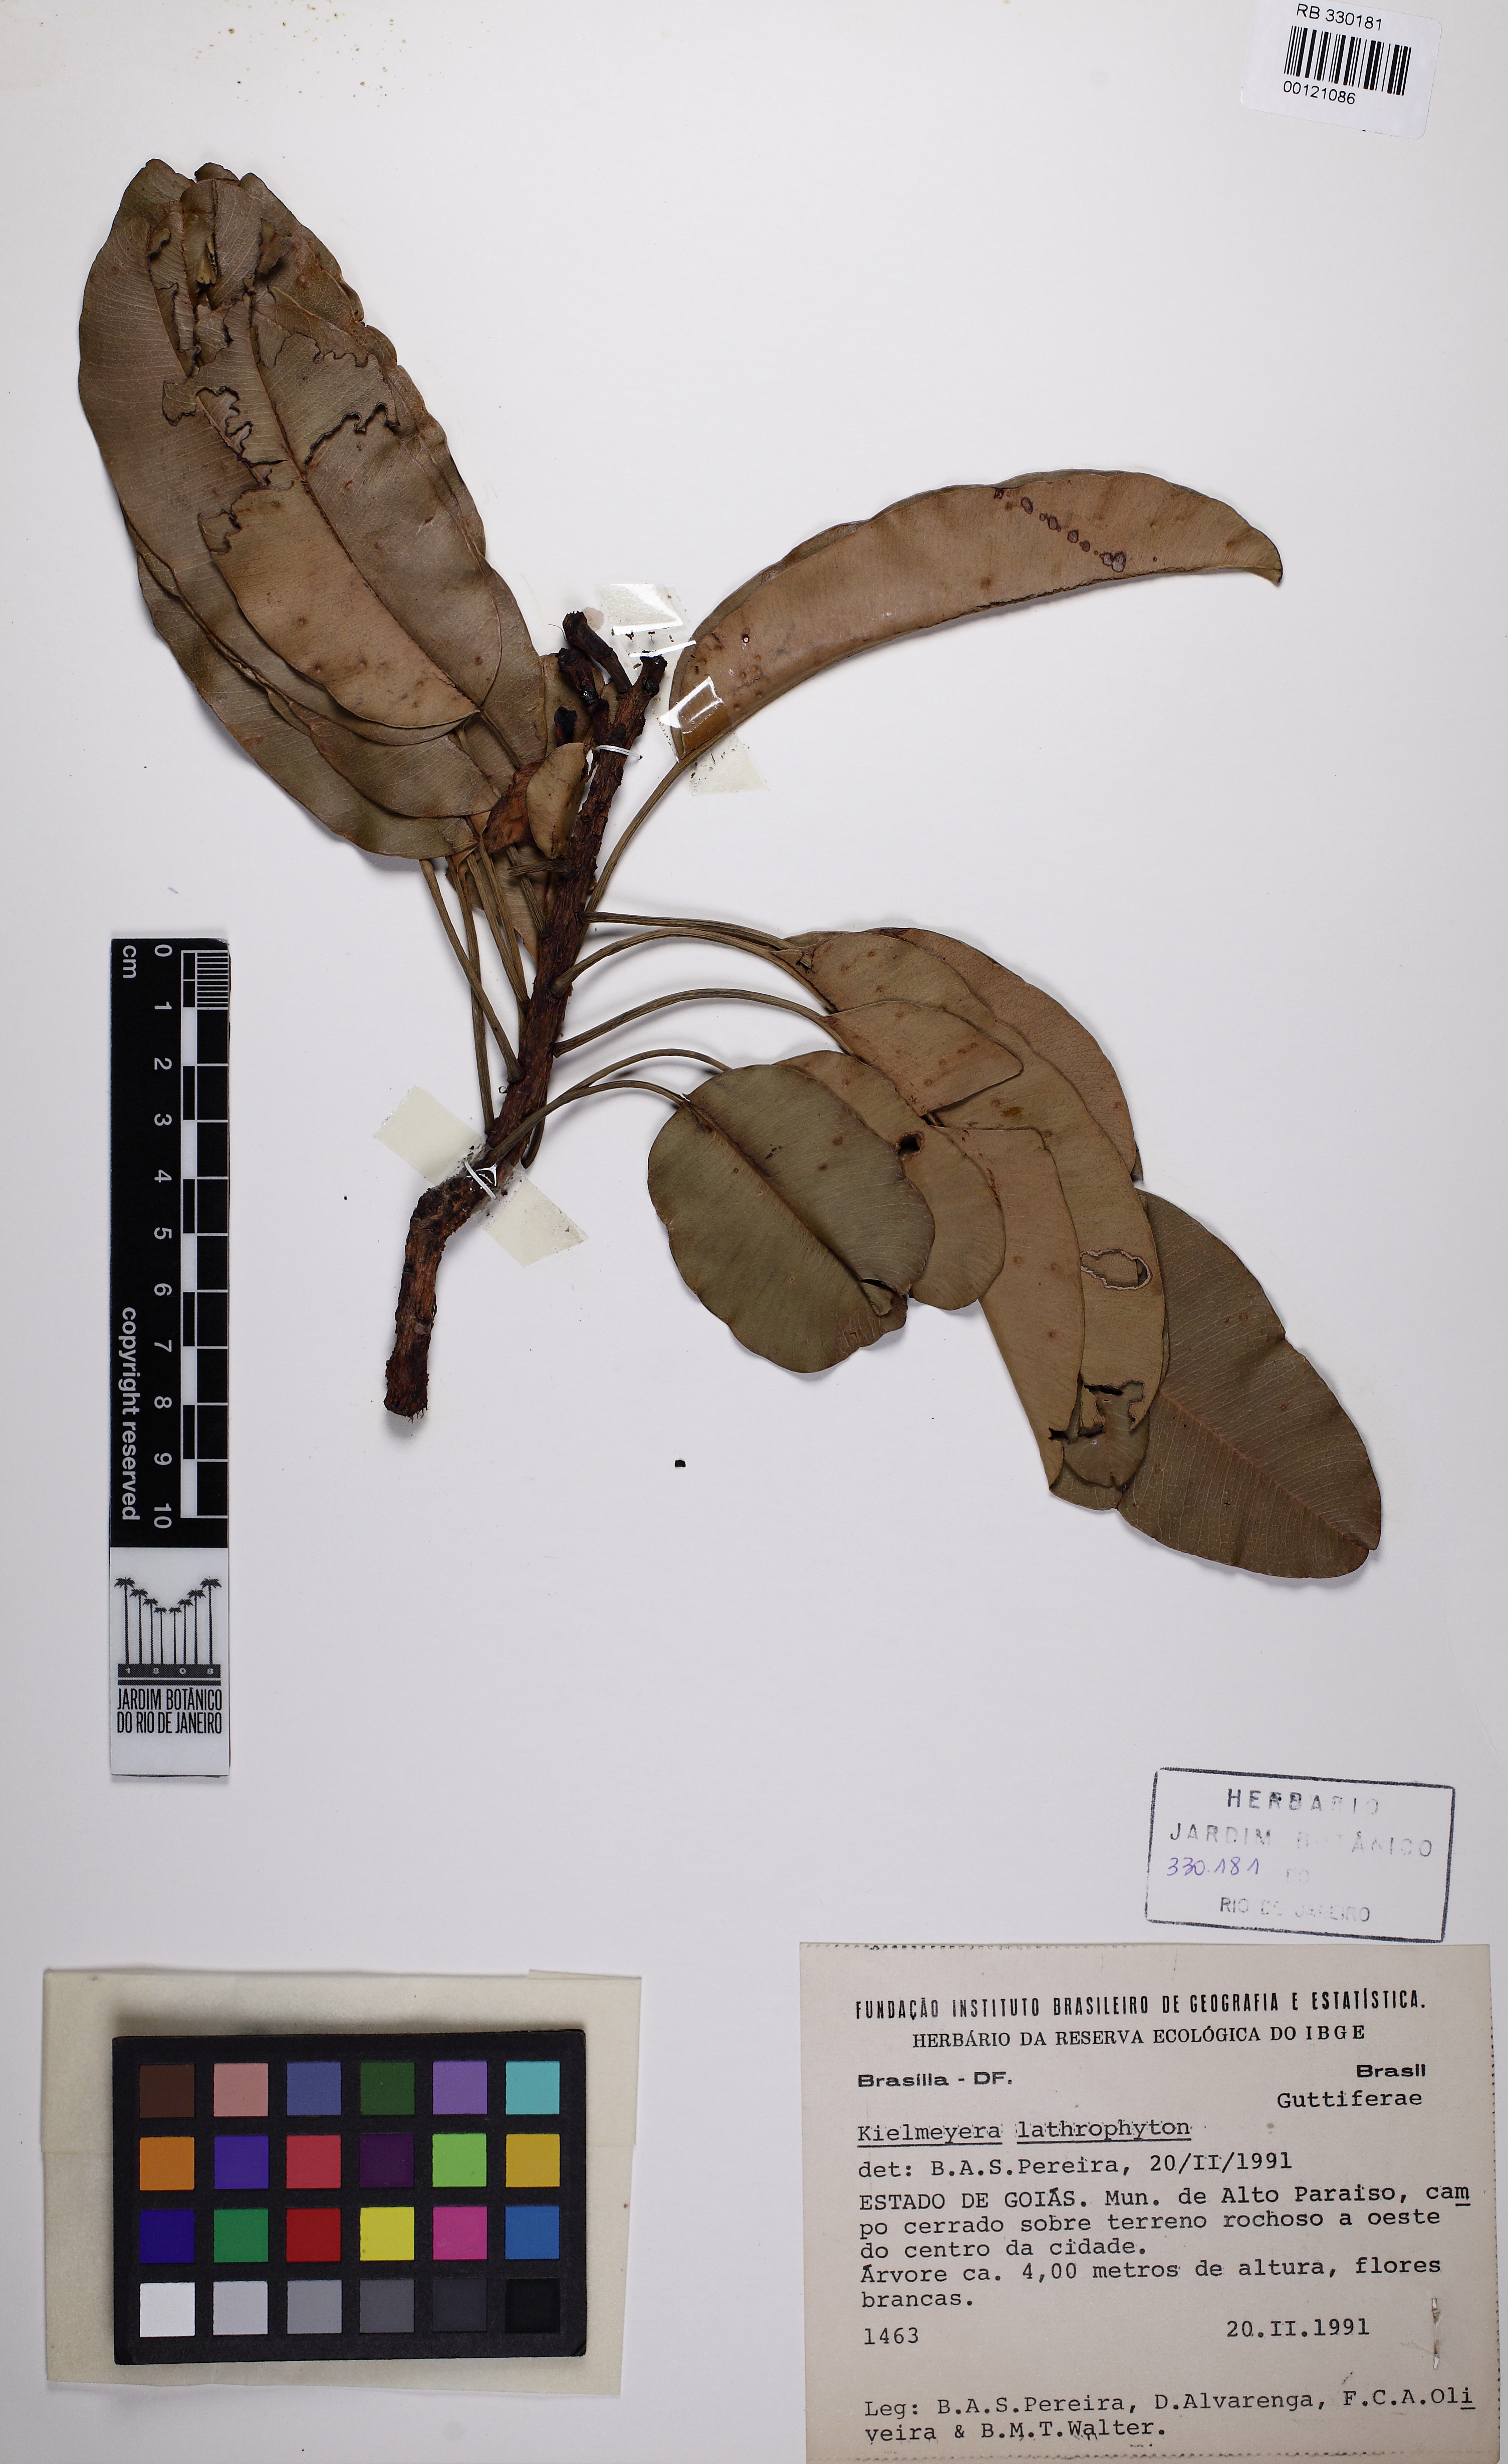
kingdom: Plantae
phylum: Tracheophyta
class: Magnoliopsida
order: Malpighiales
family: Calophyllaceae
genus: Kielmeyera
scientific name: Kielmeyera lathrophyton
